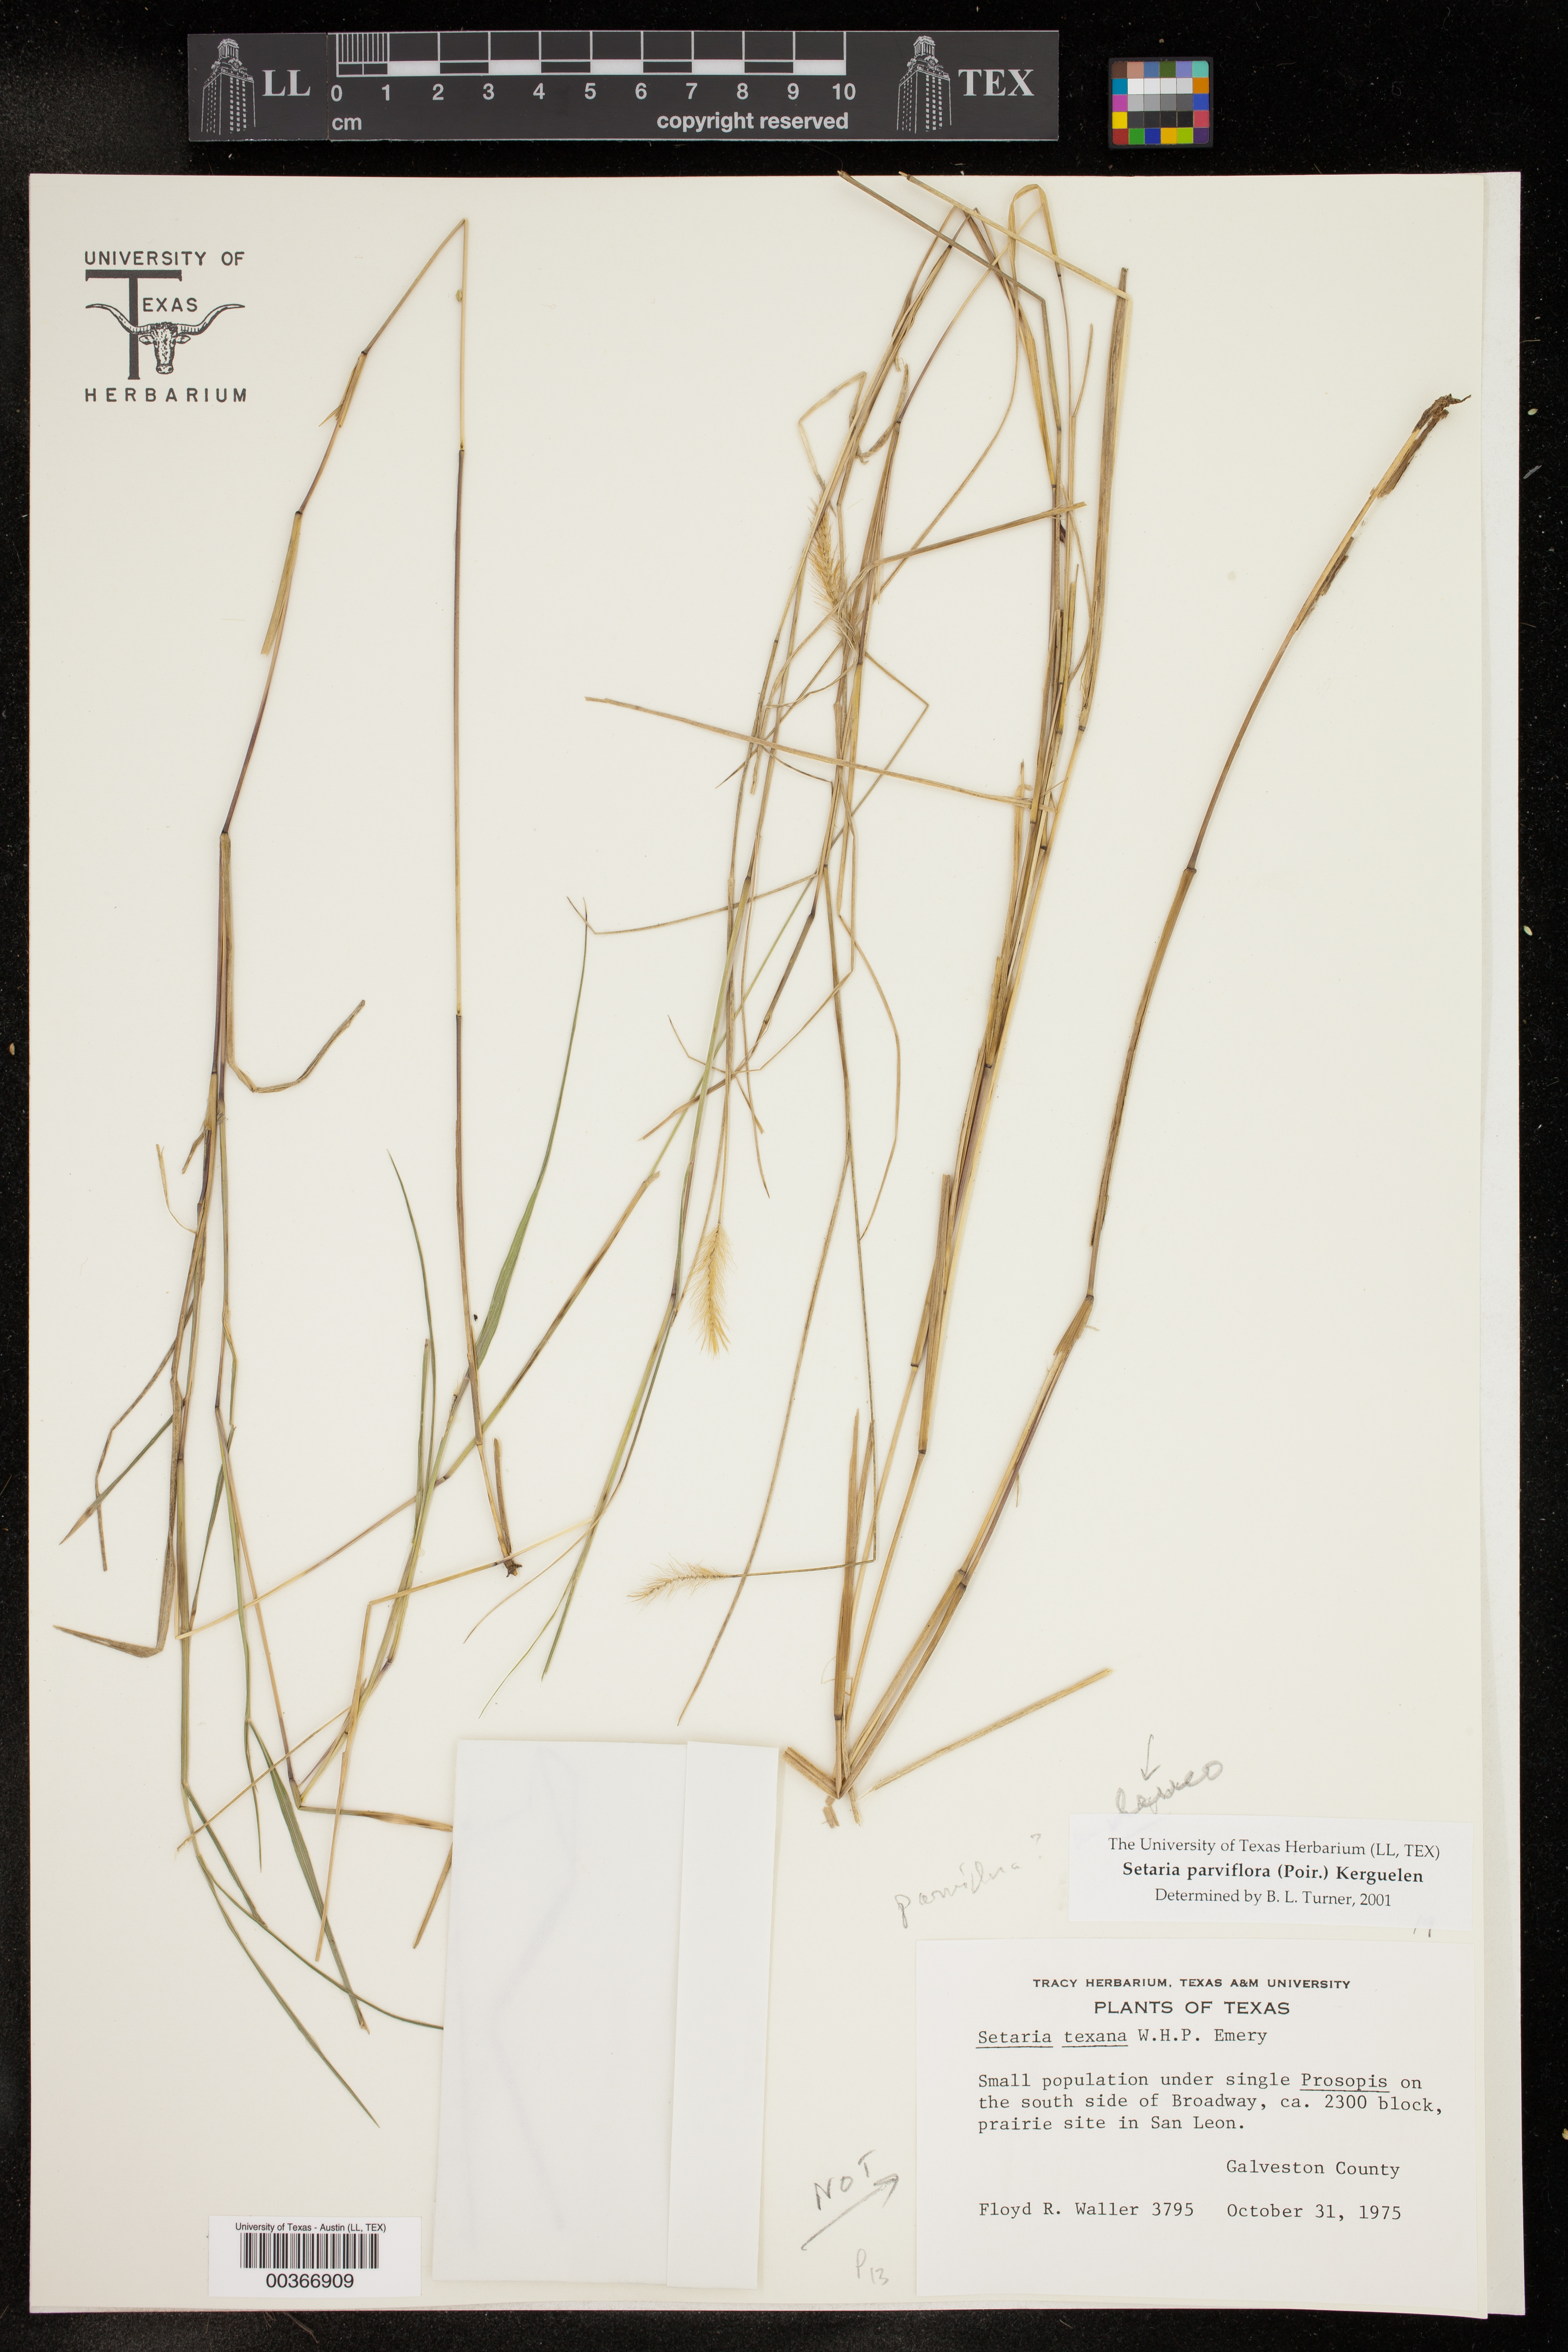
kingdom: Plantae
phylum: Tracheophyta
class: Liliopsida
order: Poales
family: Poaceae
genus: Setaria
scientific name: Setaria parviflora
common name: Knotroot bristle-grass
